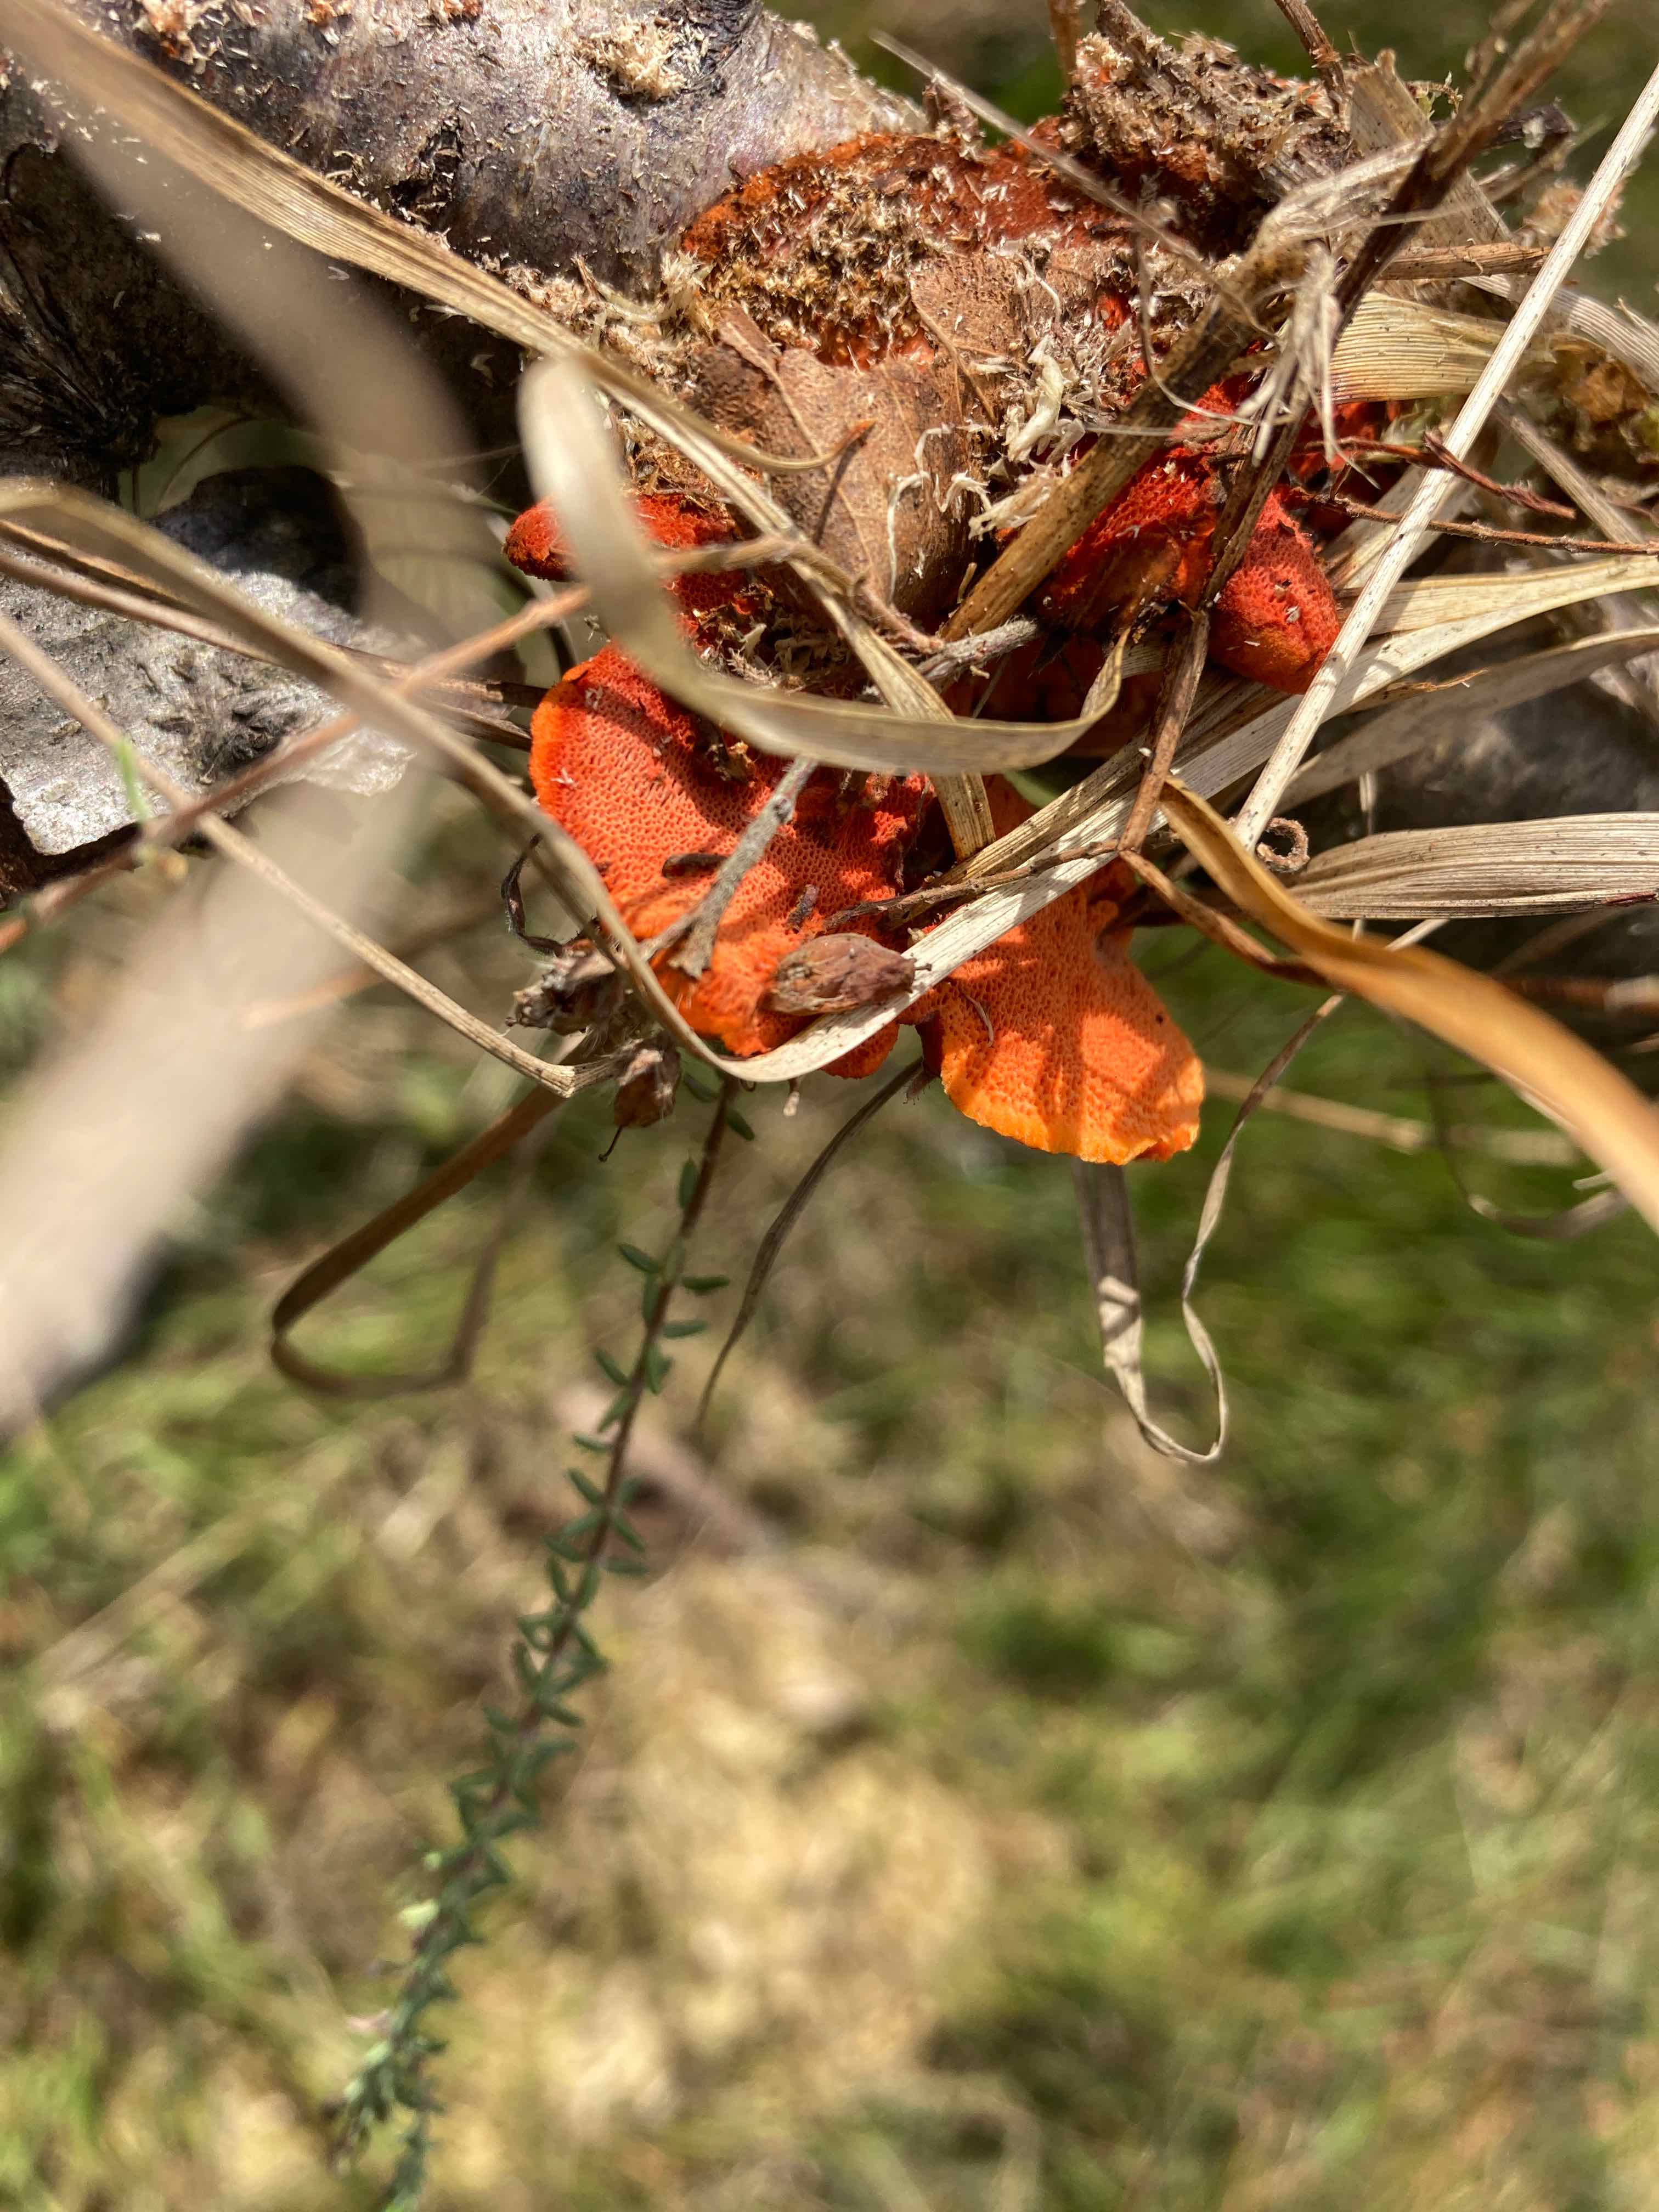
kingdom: Fungi
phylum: Basidiomycota
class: Agaricomycetes
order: Polyporales
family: Polyporaceae
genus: Trametes
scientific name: Trametes cinnabarina
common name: cinnoberporesvamp
